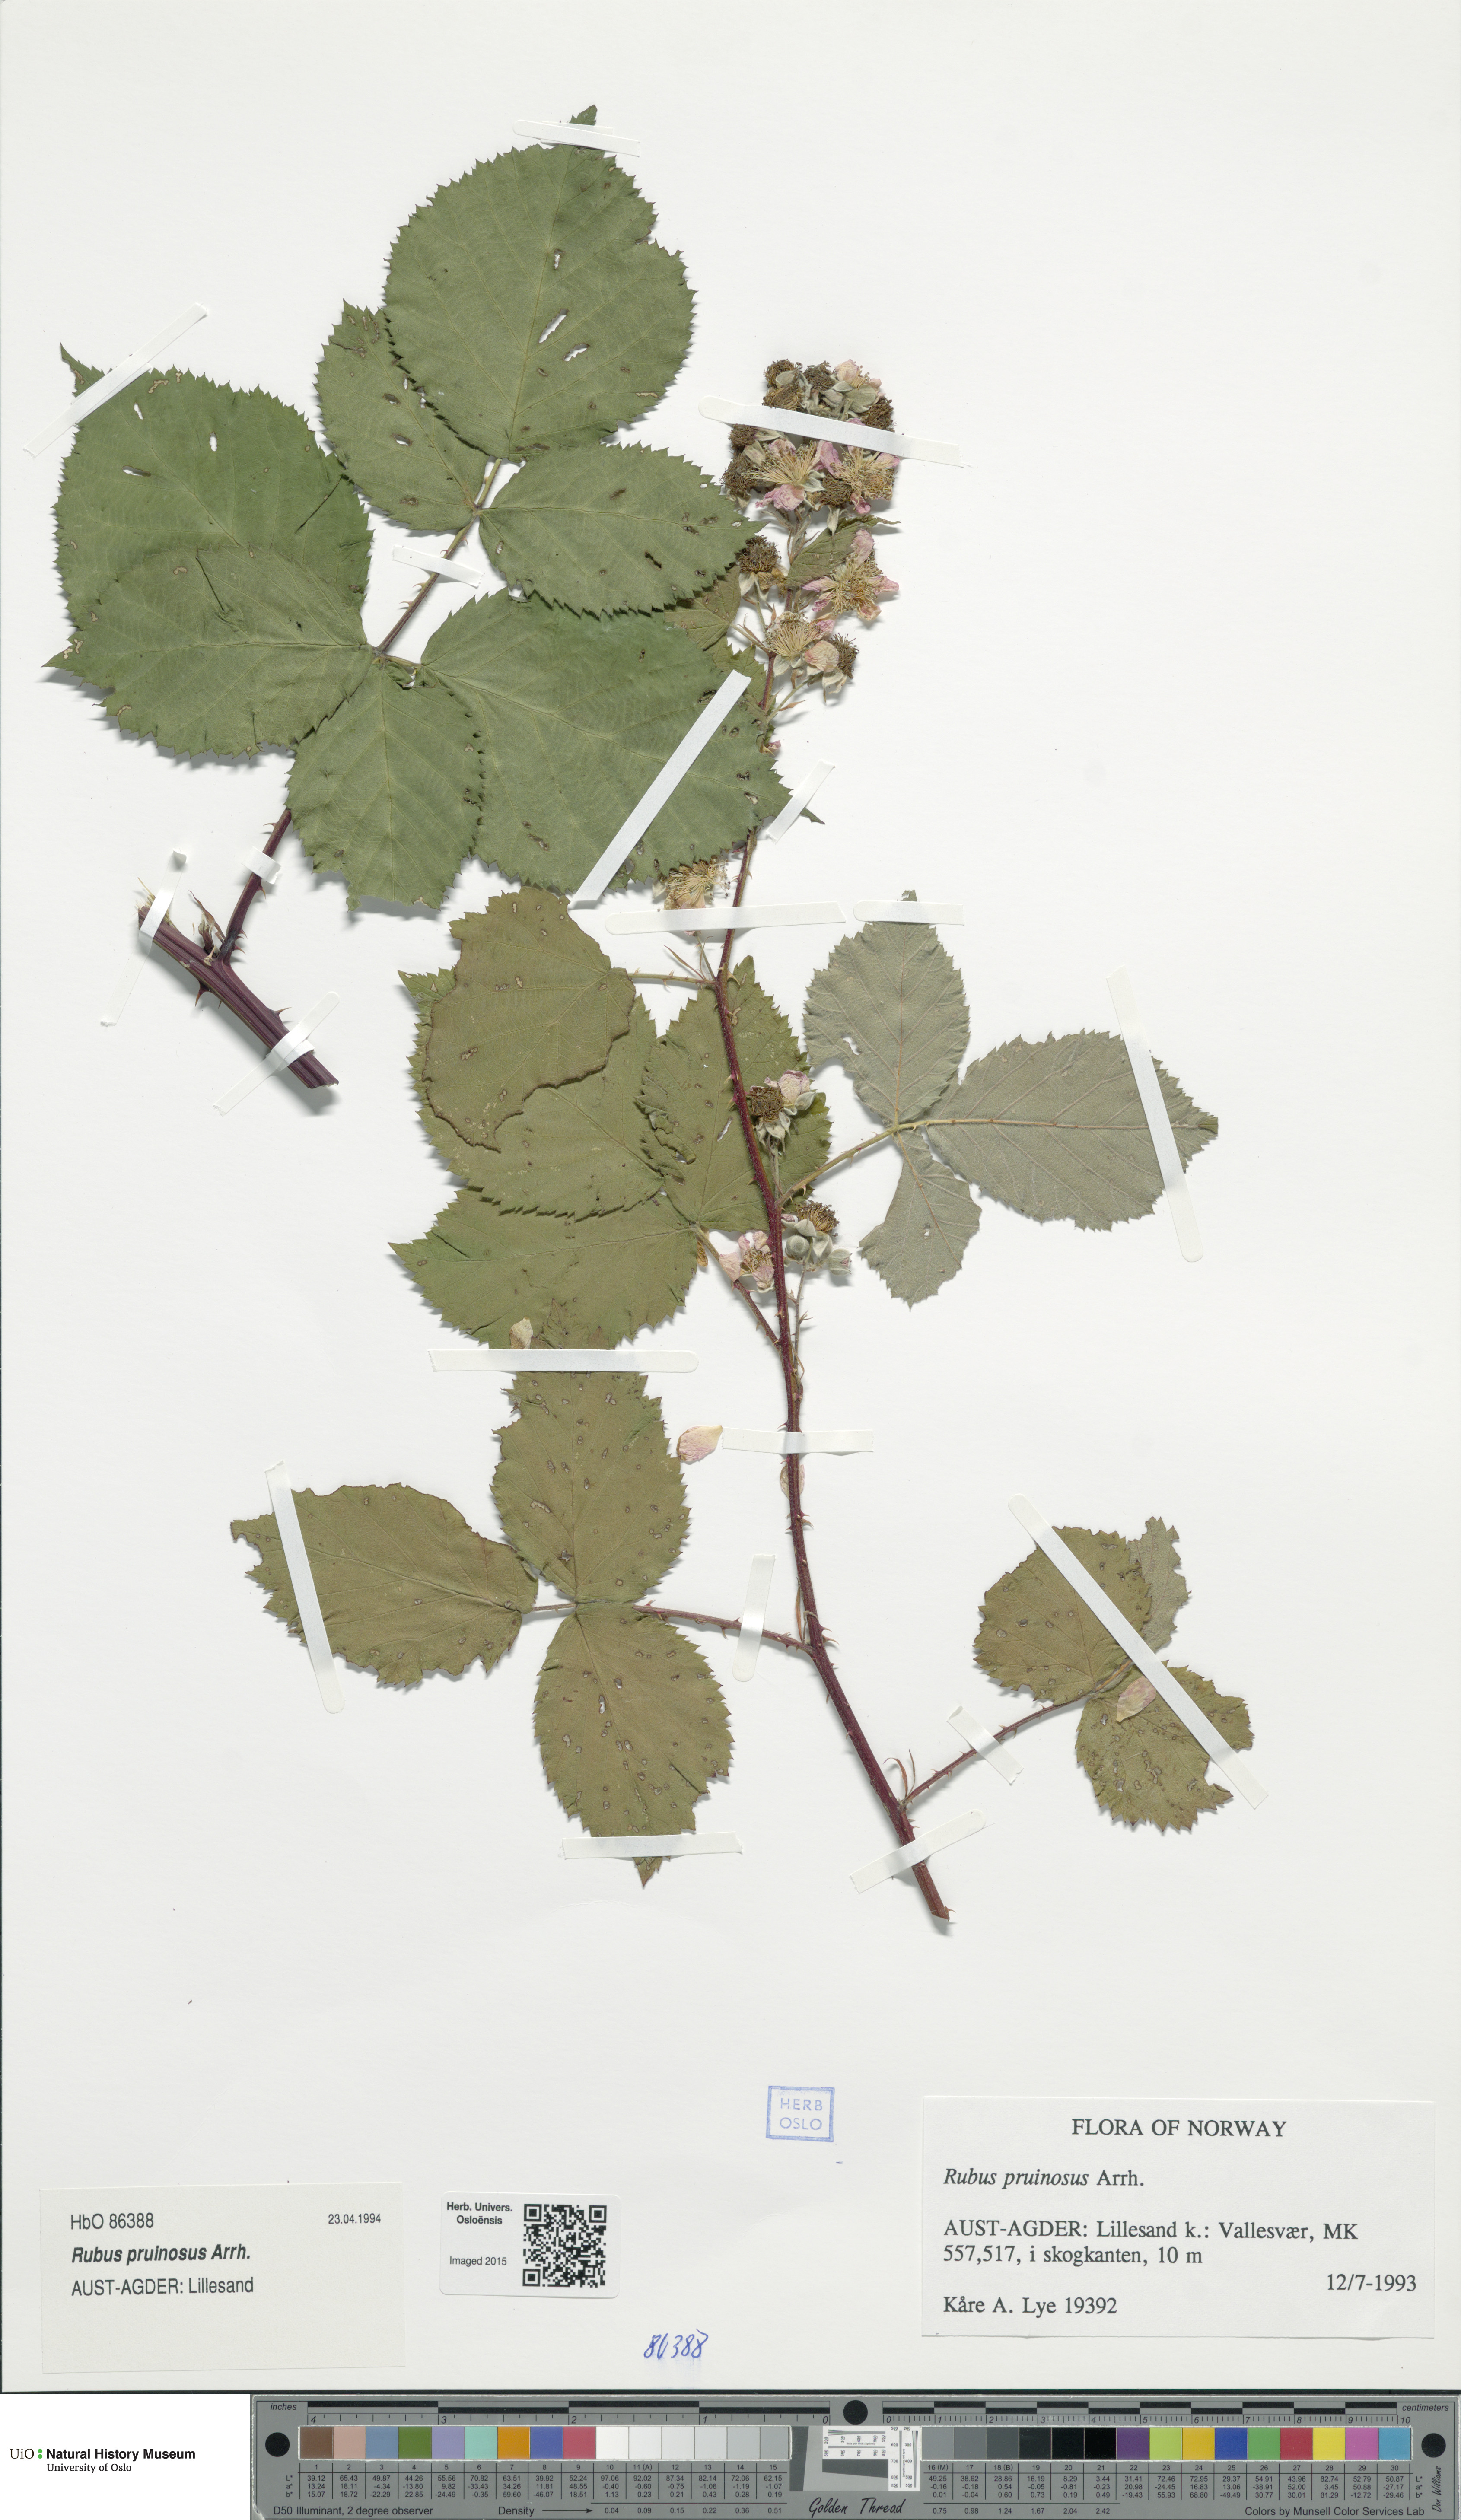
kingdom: Plantae
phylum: Tracheophyta
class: Magnoliopsida
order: Rosales
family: Rosaceae
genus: Rubus
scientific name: Rubus pruinosus
